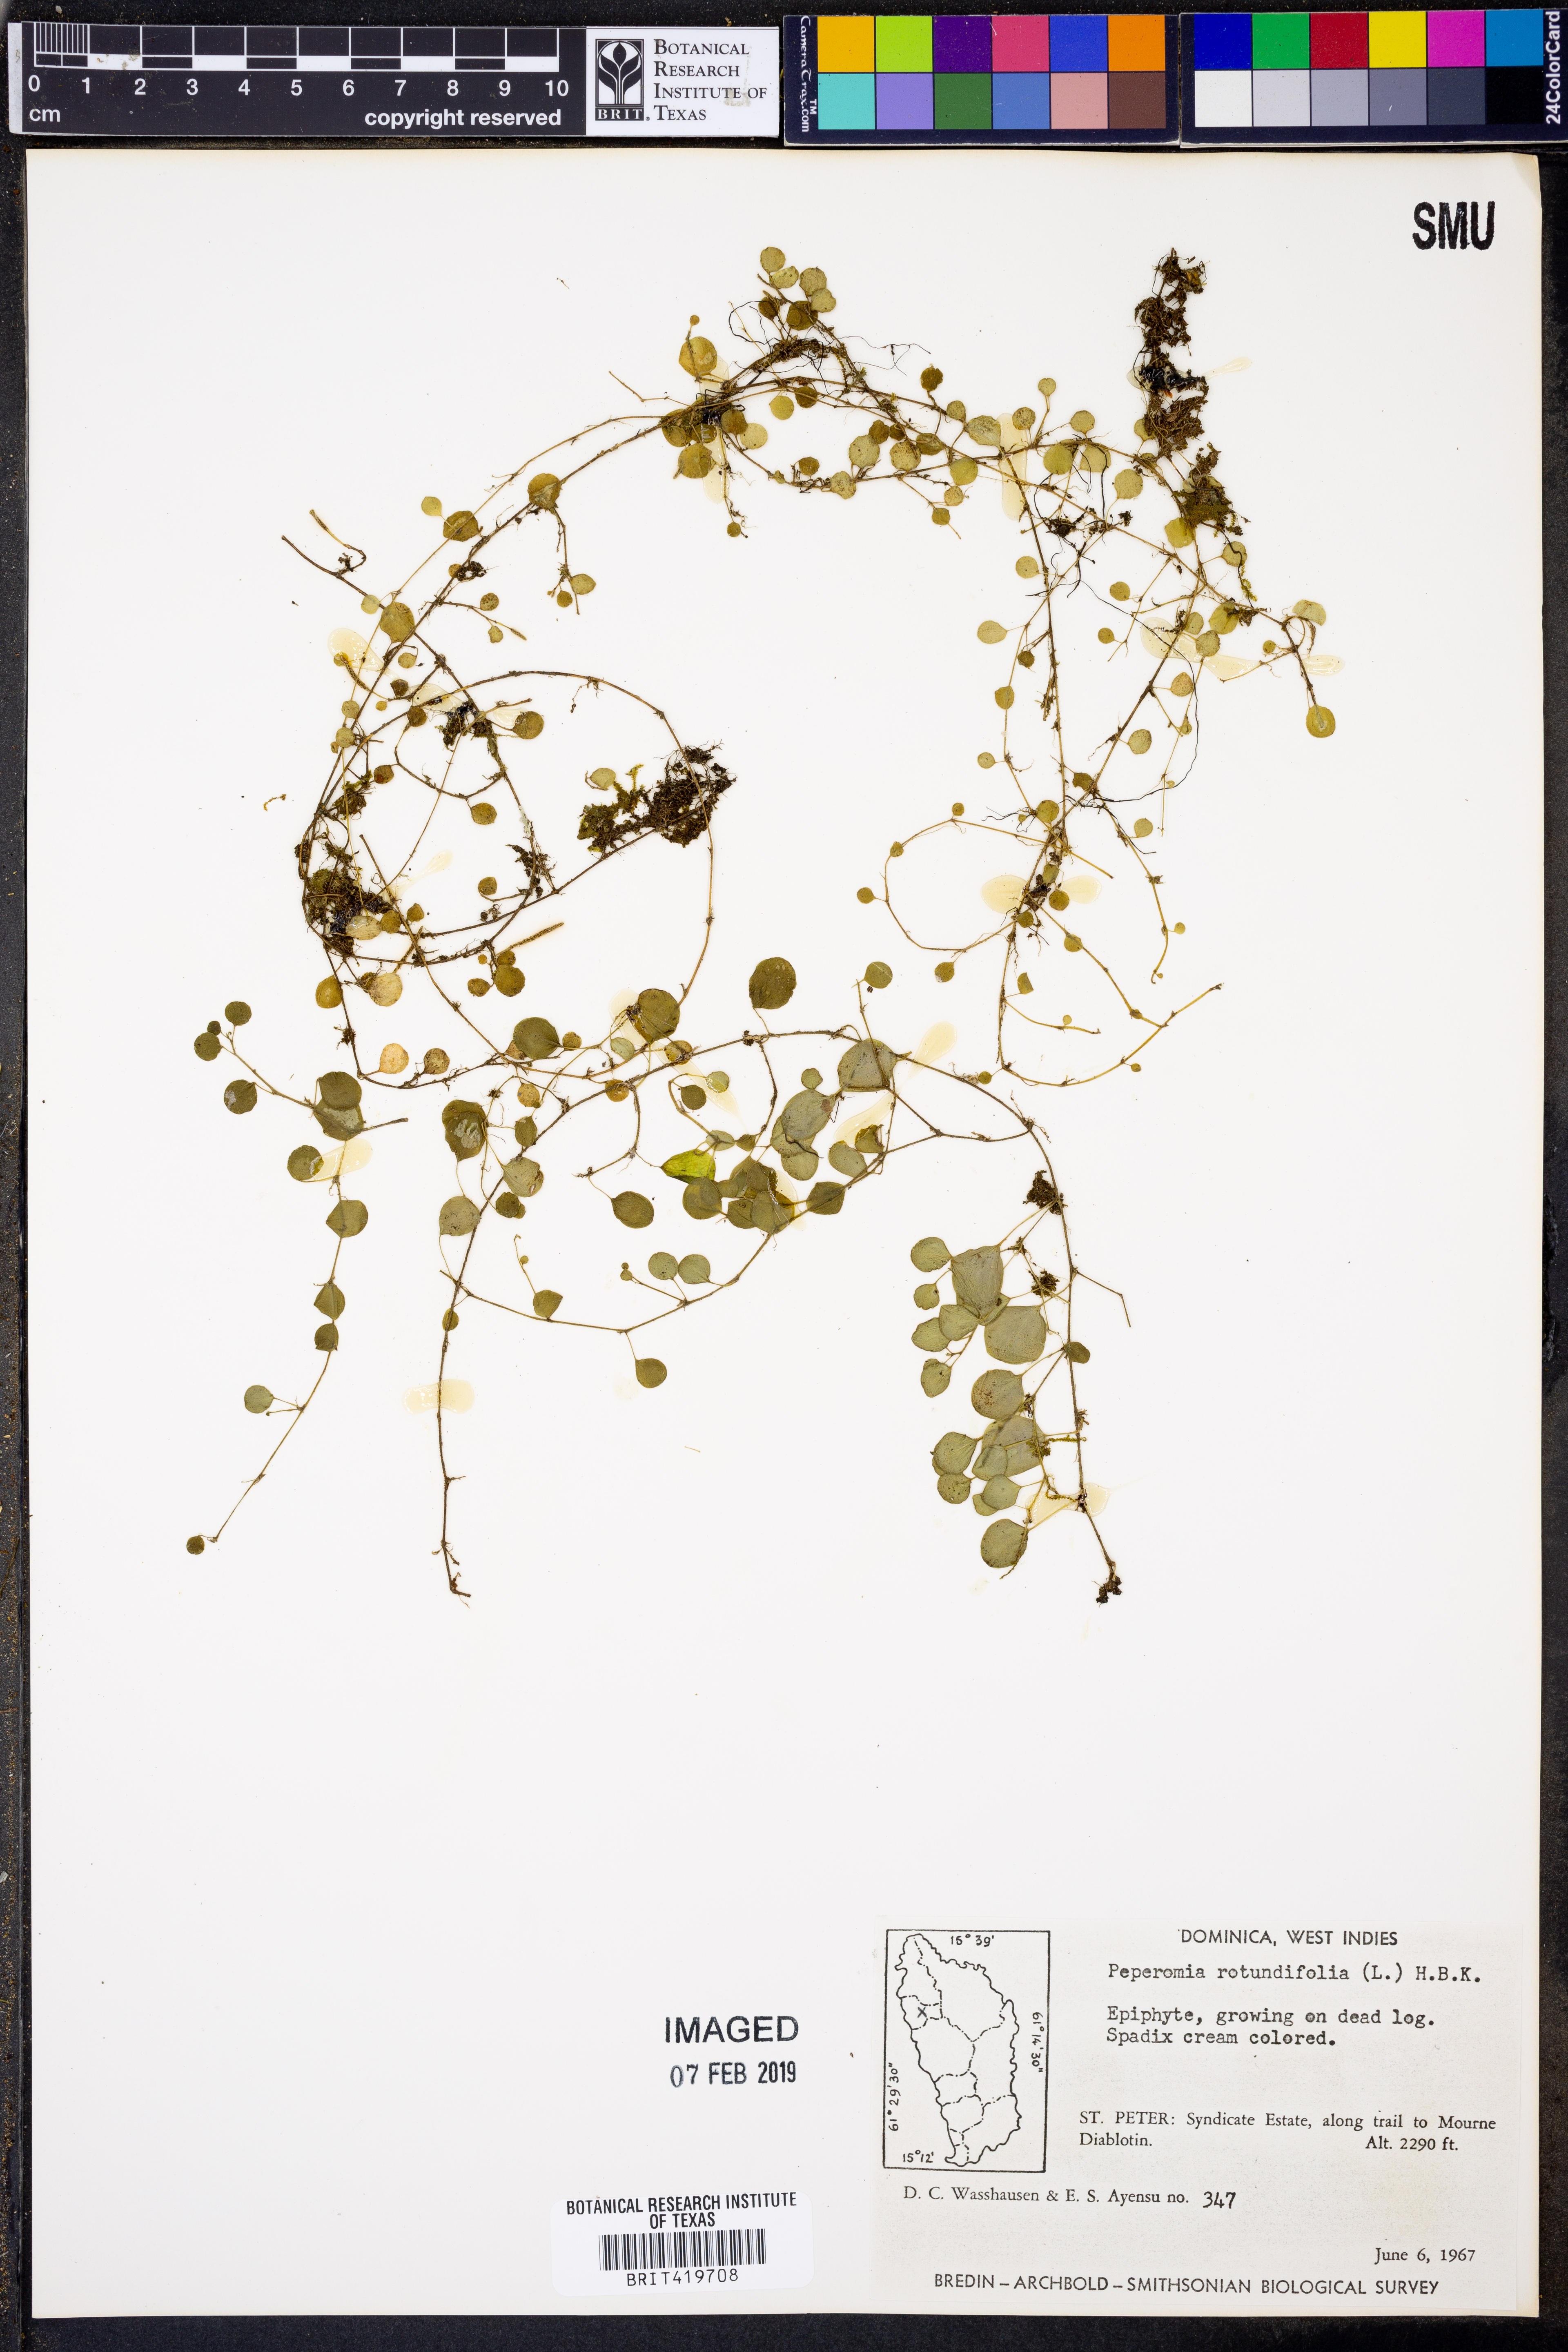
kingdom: Plantae
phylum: Tracheophyta
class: Magnoliopsida
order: Piperales
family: Piperaceae
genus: Peperomia
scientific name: Peperomia rotundifolia
